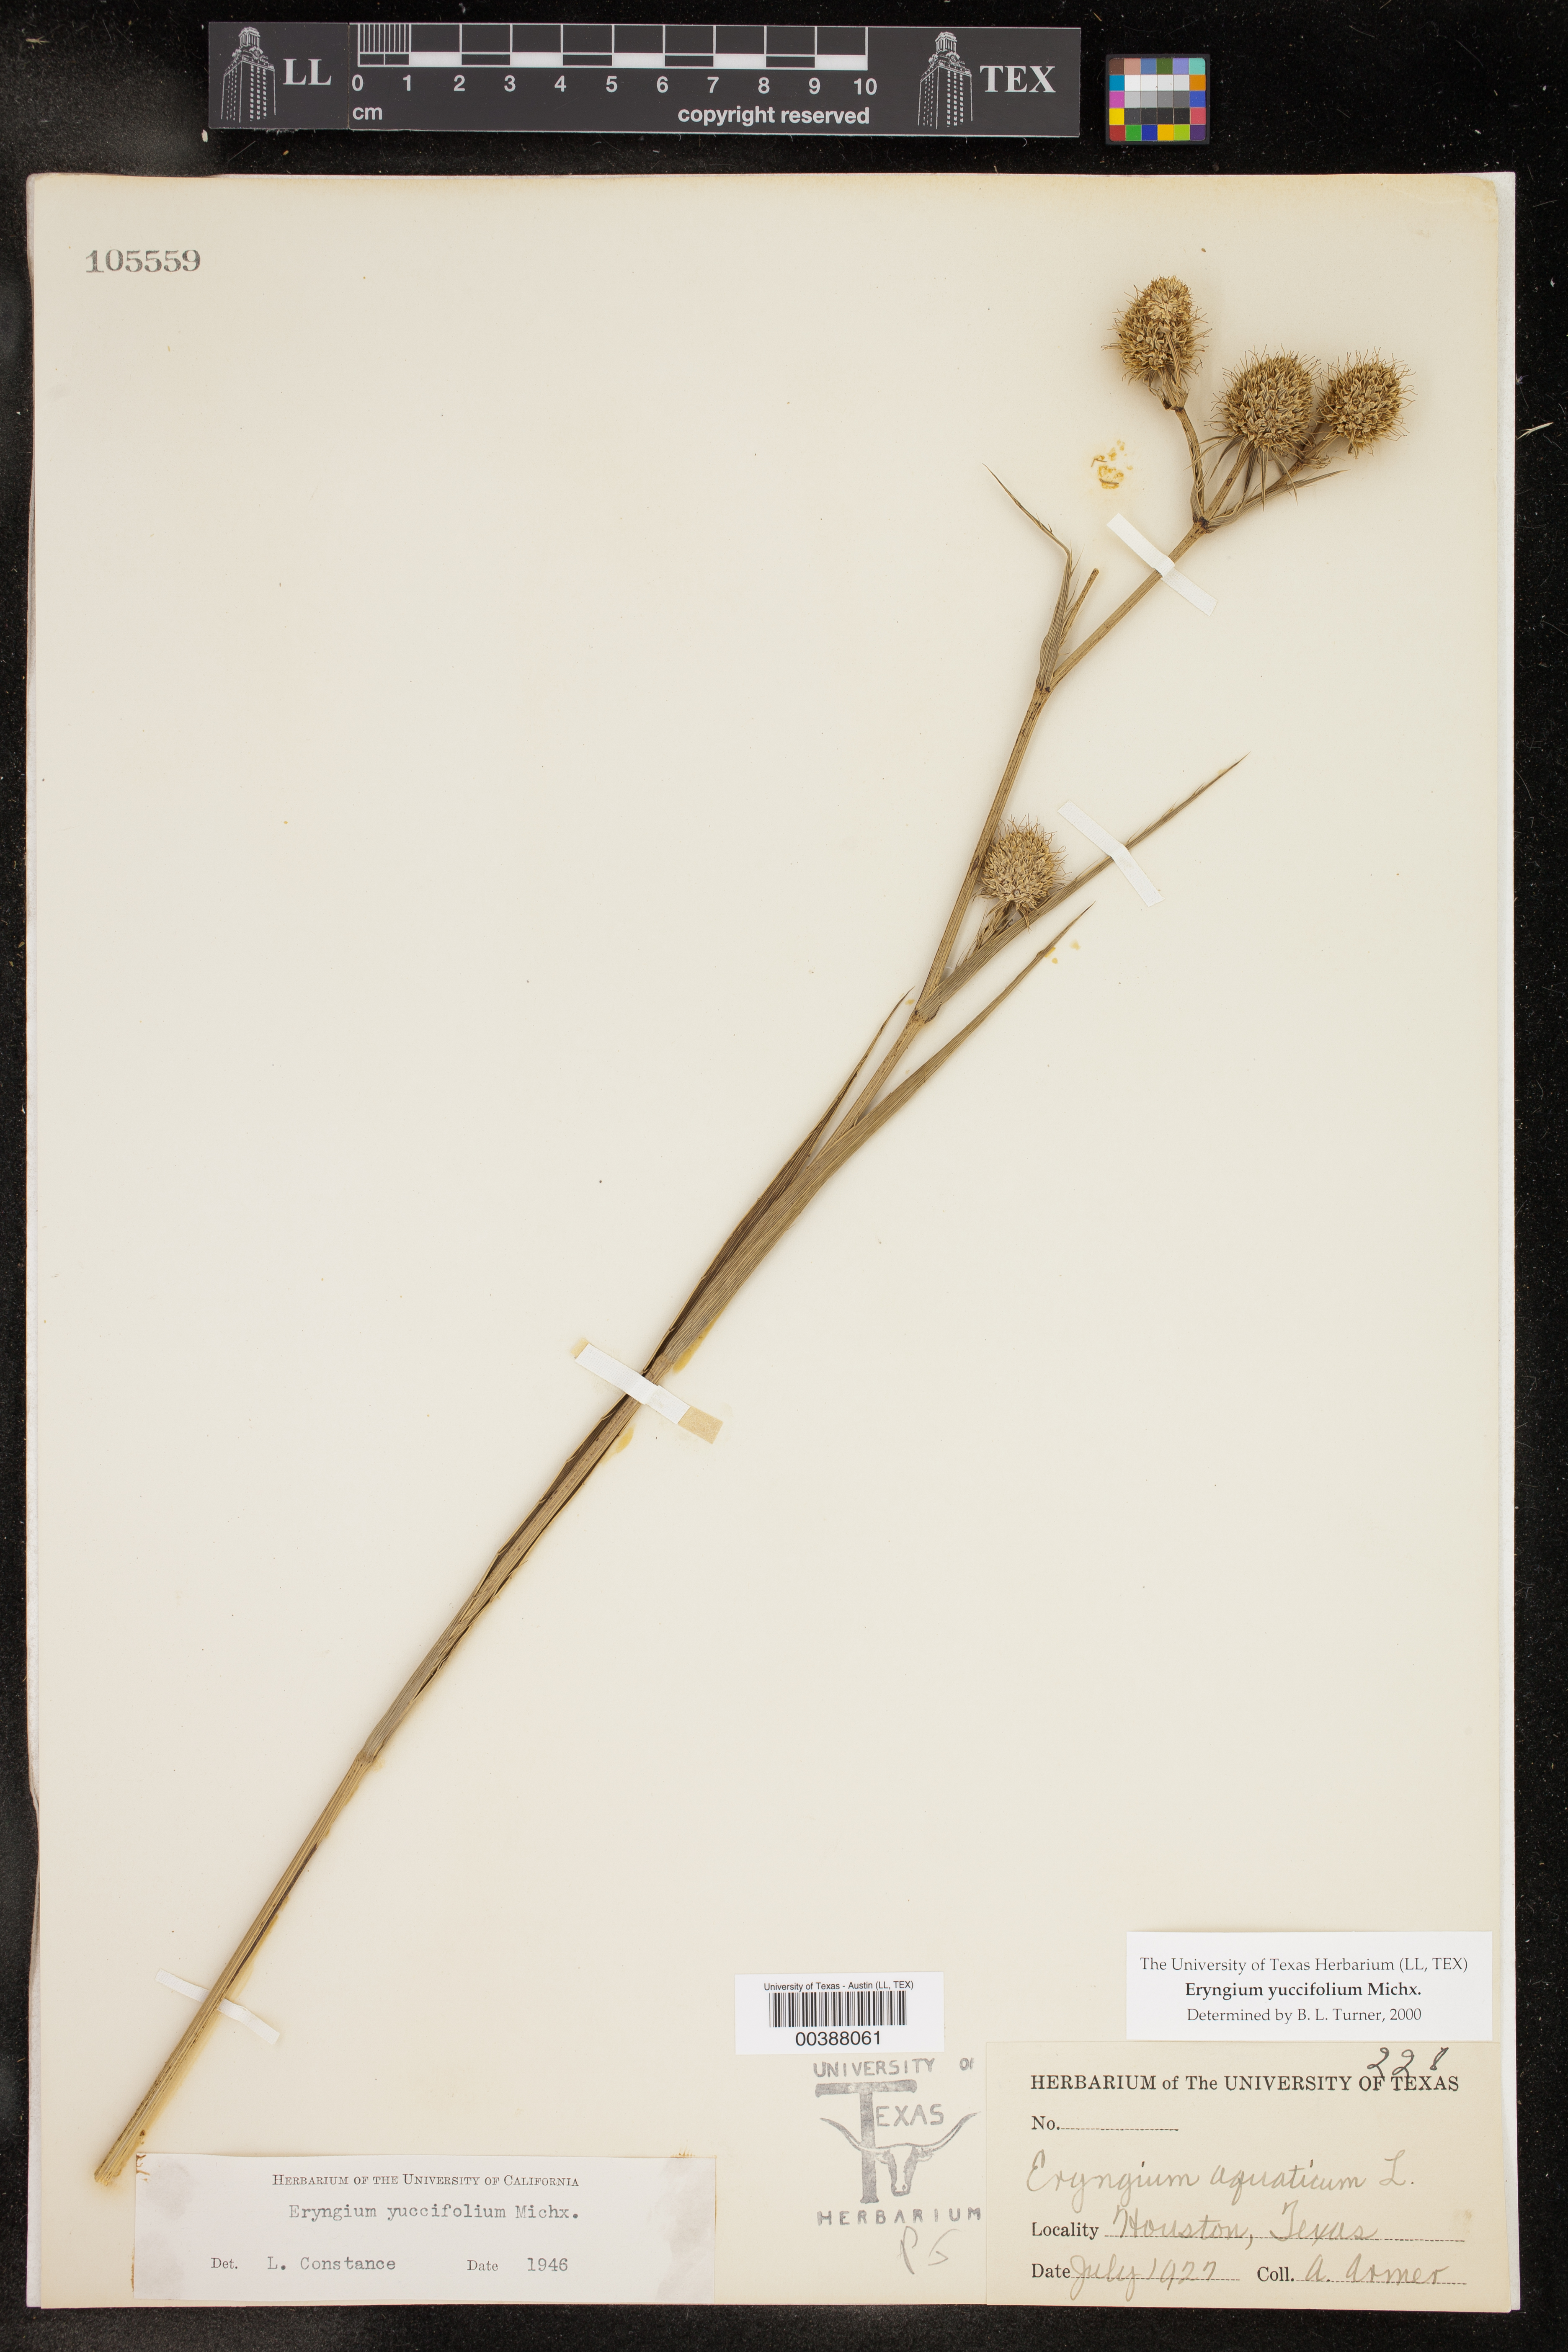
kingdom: Plantae
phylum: Tracheophyta
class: Magnoliopsida
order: Apiales
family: Apiaceae
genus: Eryngium
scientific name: Eryngium yuccifolium
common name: Button eryngo
